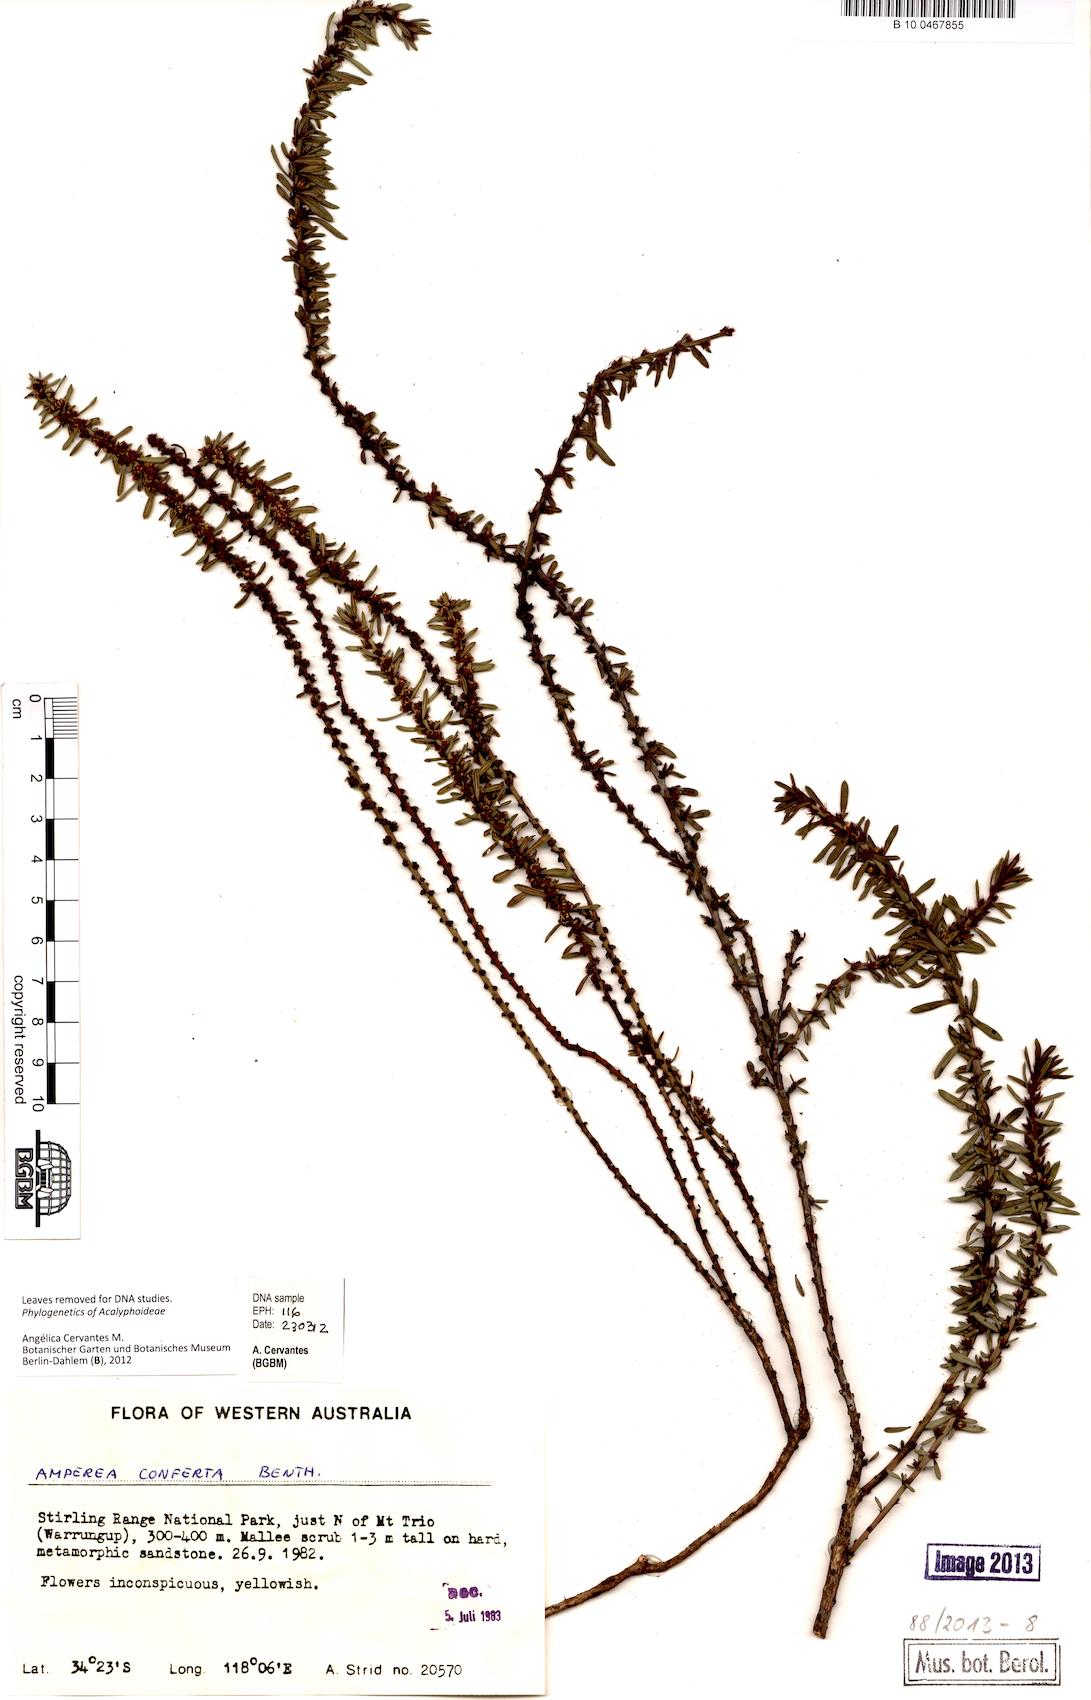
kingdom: Plantae
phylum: Tracheophyta
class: Magnoliopsida
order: Malpighiales
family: Euphorbiaceae
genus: Amperea
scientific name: Amperea conferta
